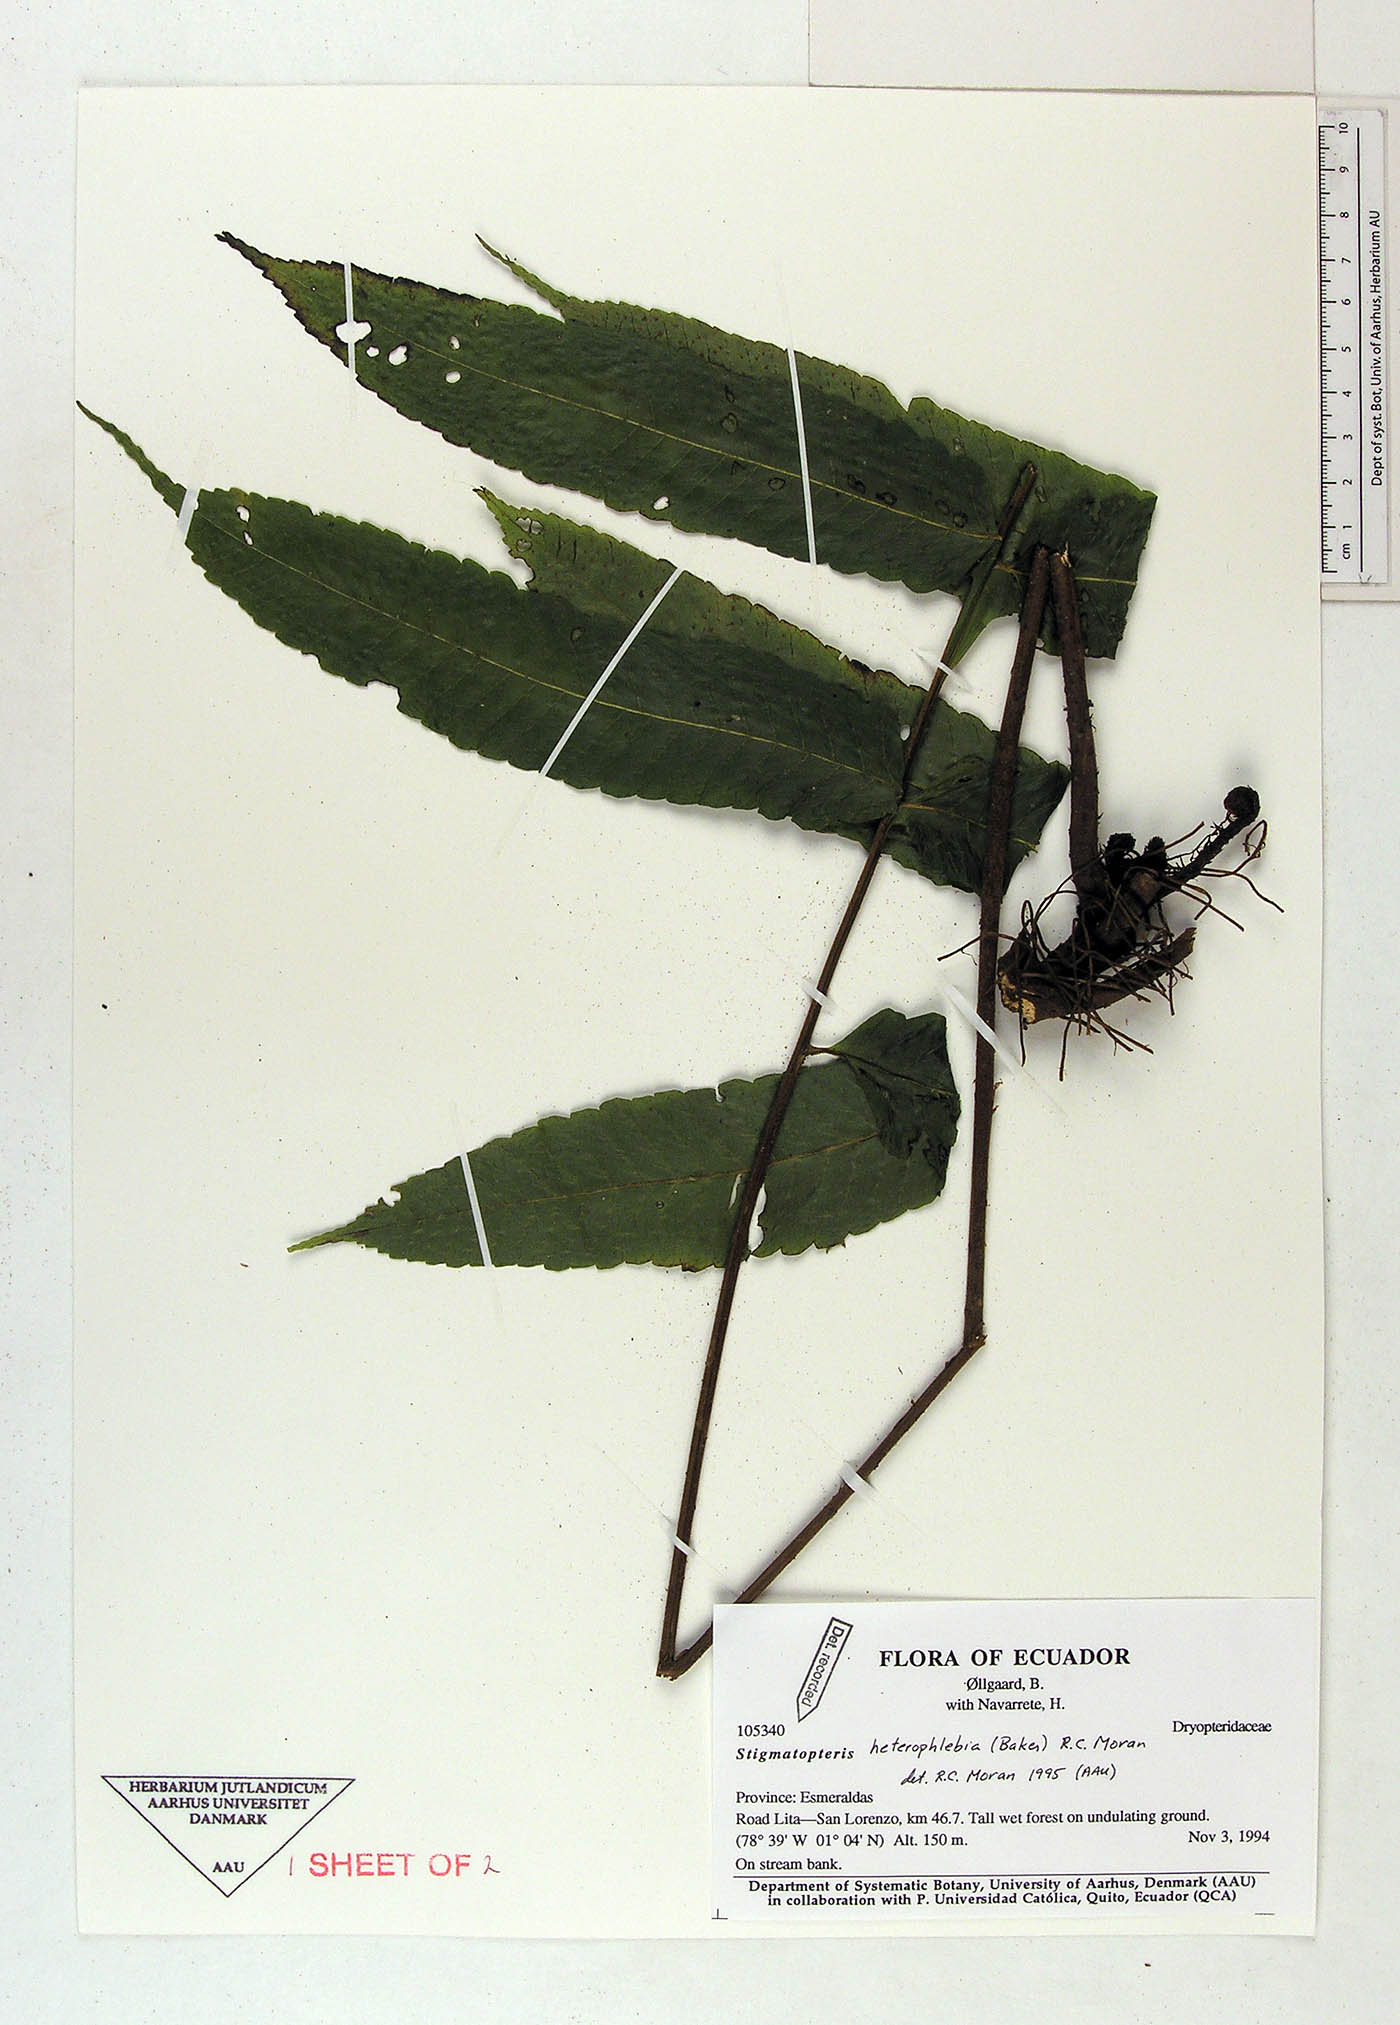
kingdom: Plantae
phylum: Tracheophyta
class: Polypodiopsida
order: Polypodiales
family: Dryopteridaceae
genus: Stigmatopteris
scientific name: Stigmatopteris heterophlebia
